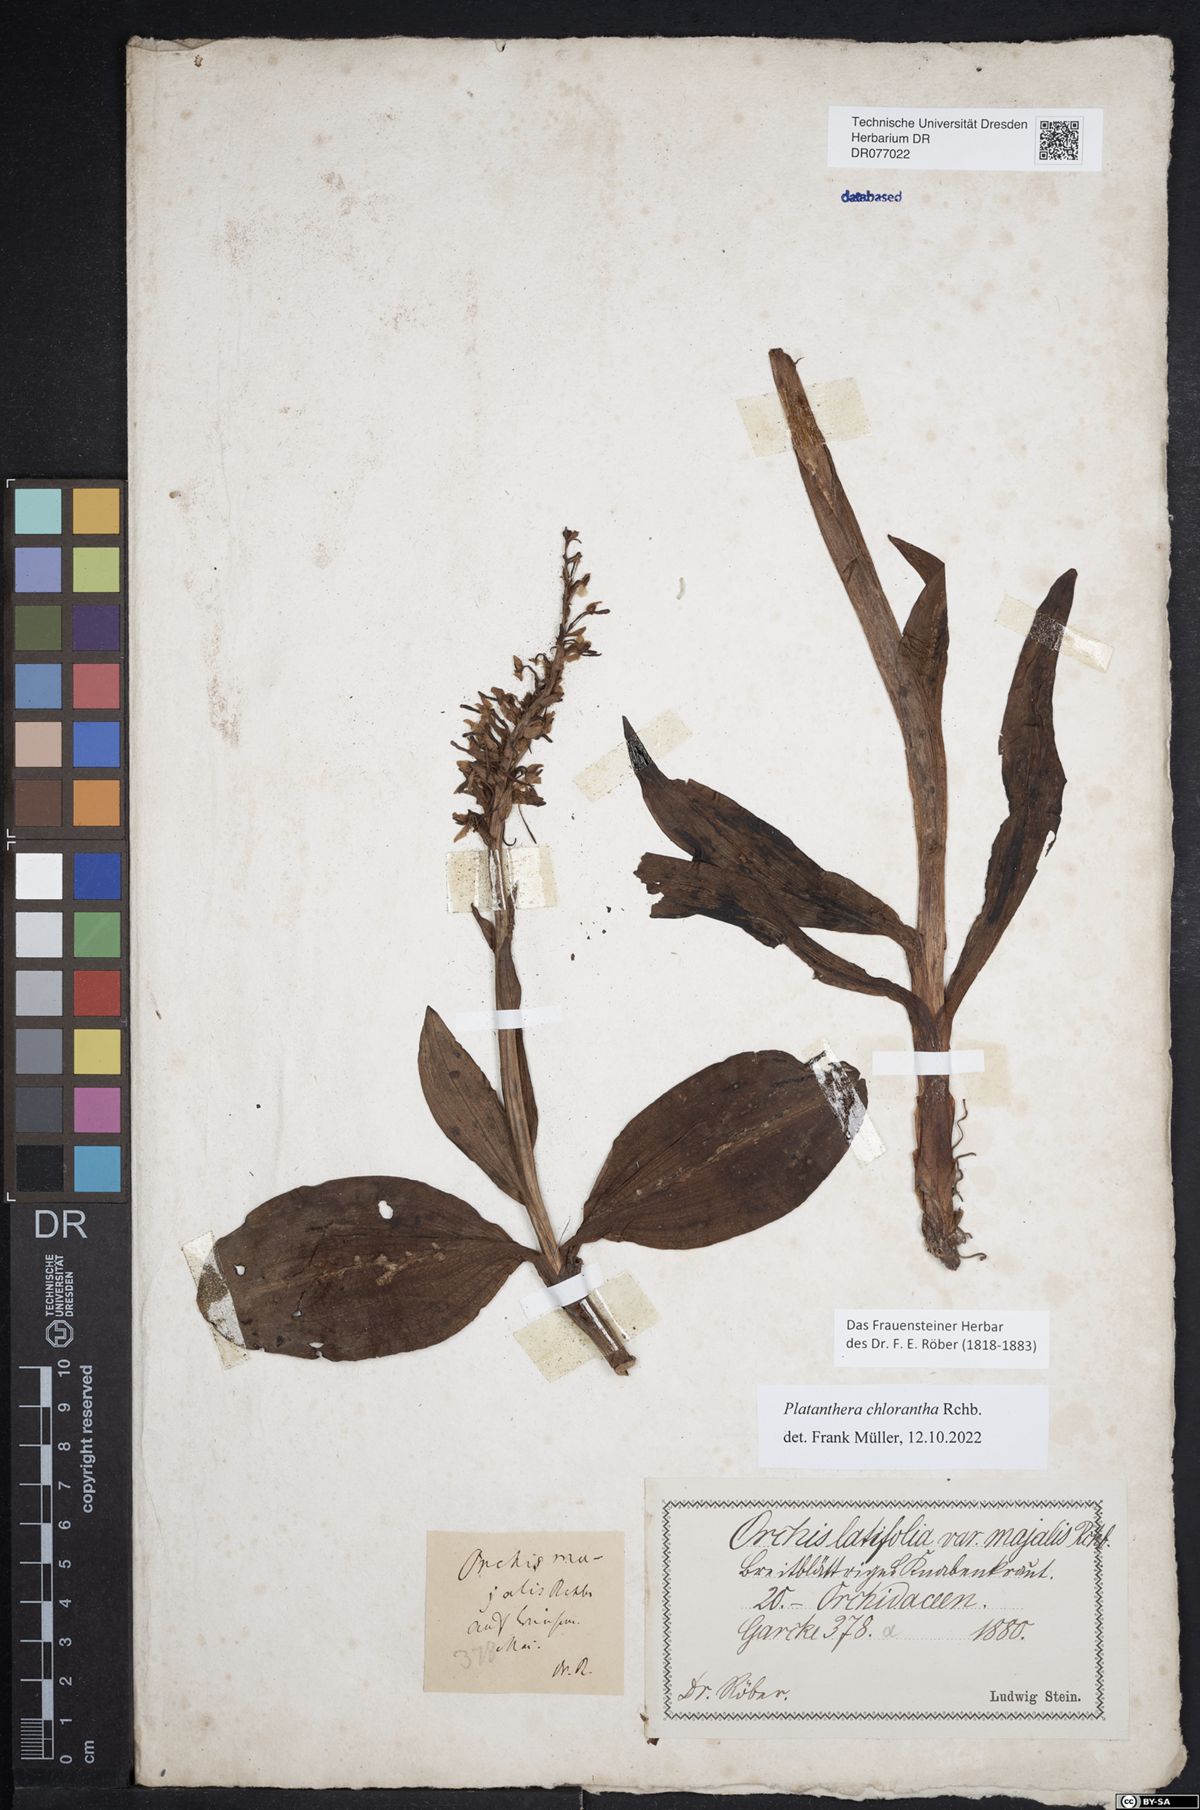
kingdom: Plantae
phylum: Tracheophyta
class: Liliopsida
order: Asparagales
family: Orchidaceae
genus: Platanthera
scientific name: Platanthera chlorantha
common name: Greater butterfly-orchid
